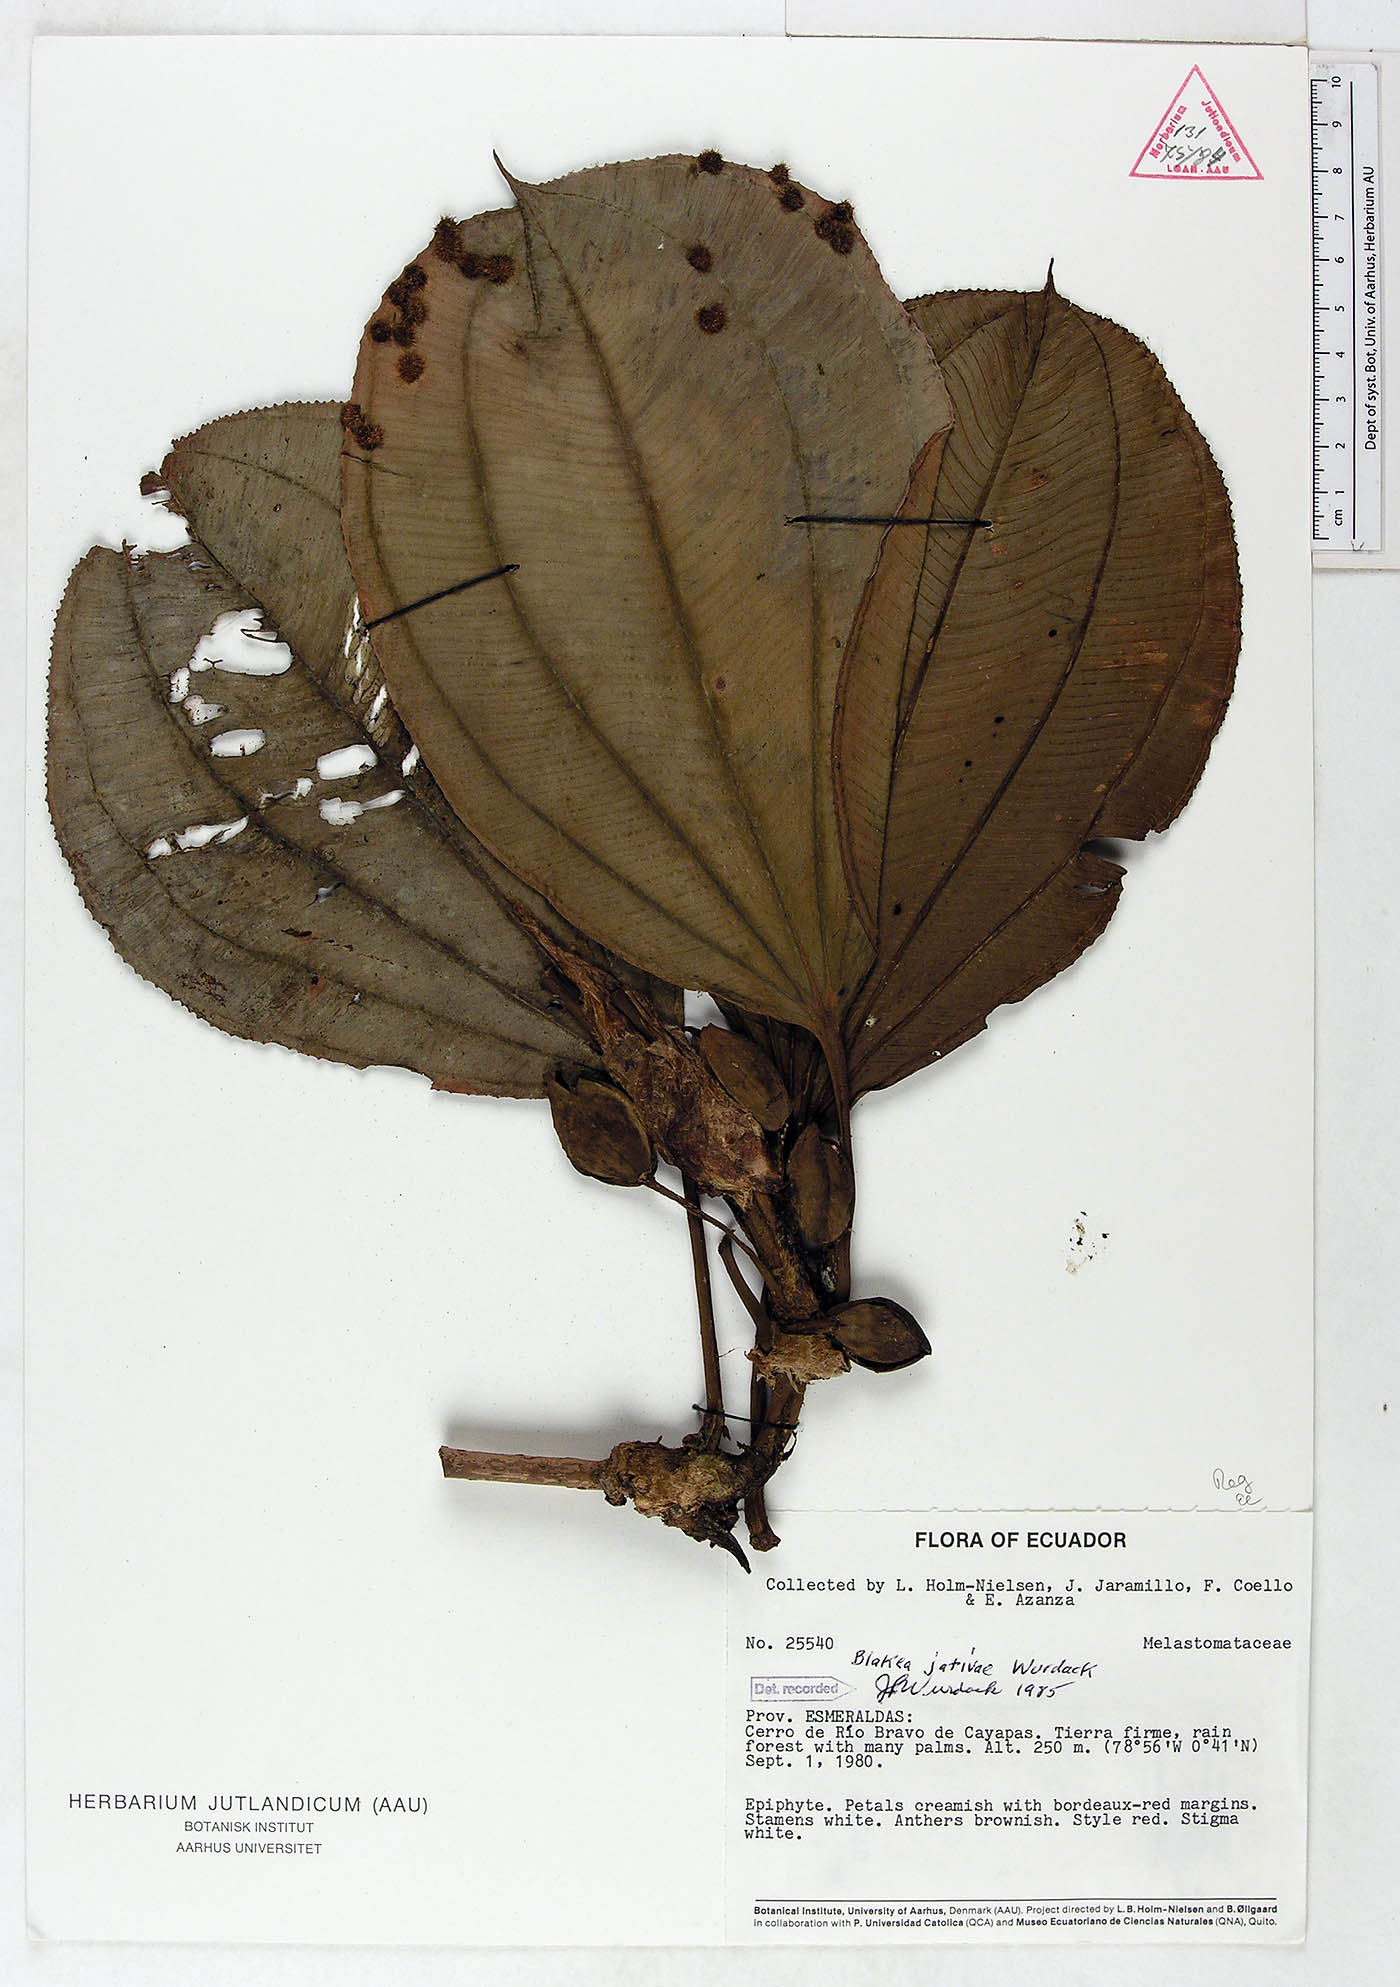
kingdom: Plantae
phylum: Tracheophyta
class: Magnoliopsida
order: Myrtales
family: Melastomataceae
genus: Blakea
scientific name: Blakea jativae
